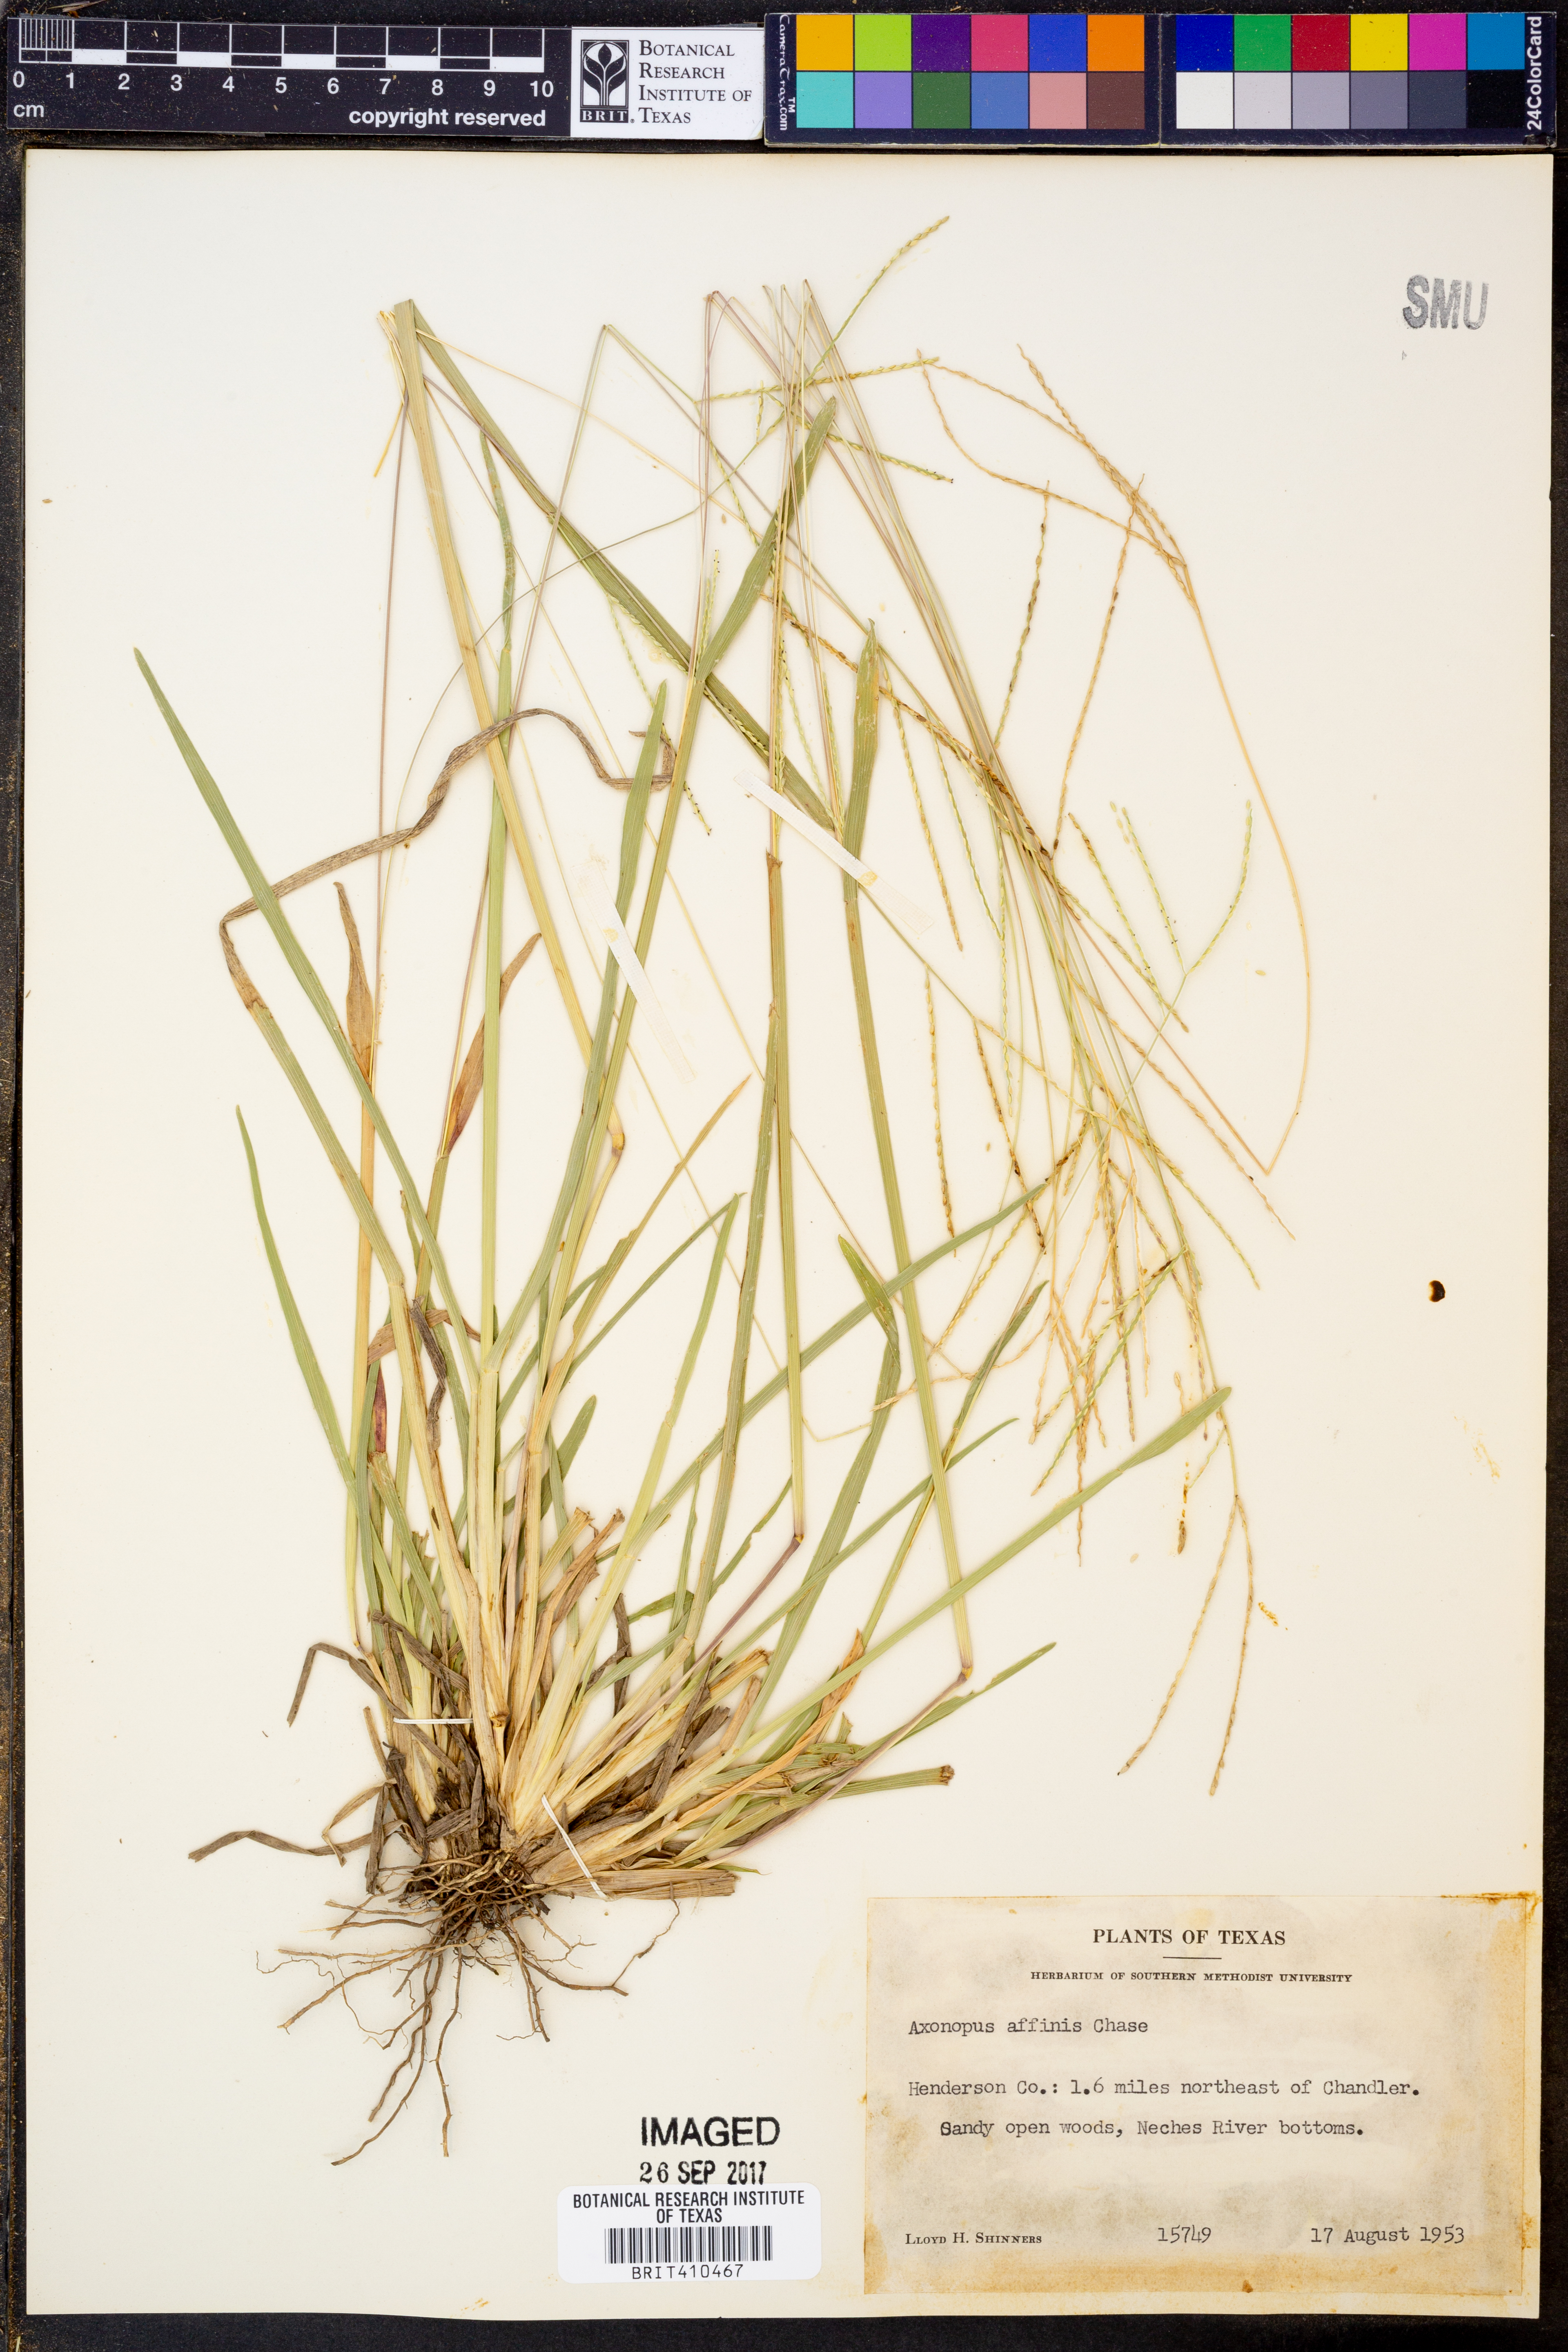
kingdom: Plantae
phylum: Tracheophyta
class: Liliopsida
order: Poales
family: Poaceae
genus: Axonopus
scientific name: Axonopus fissifolius
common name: Common carpetgrass
